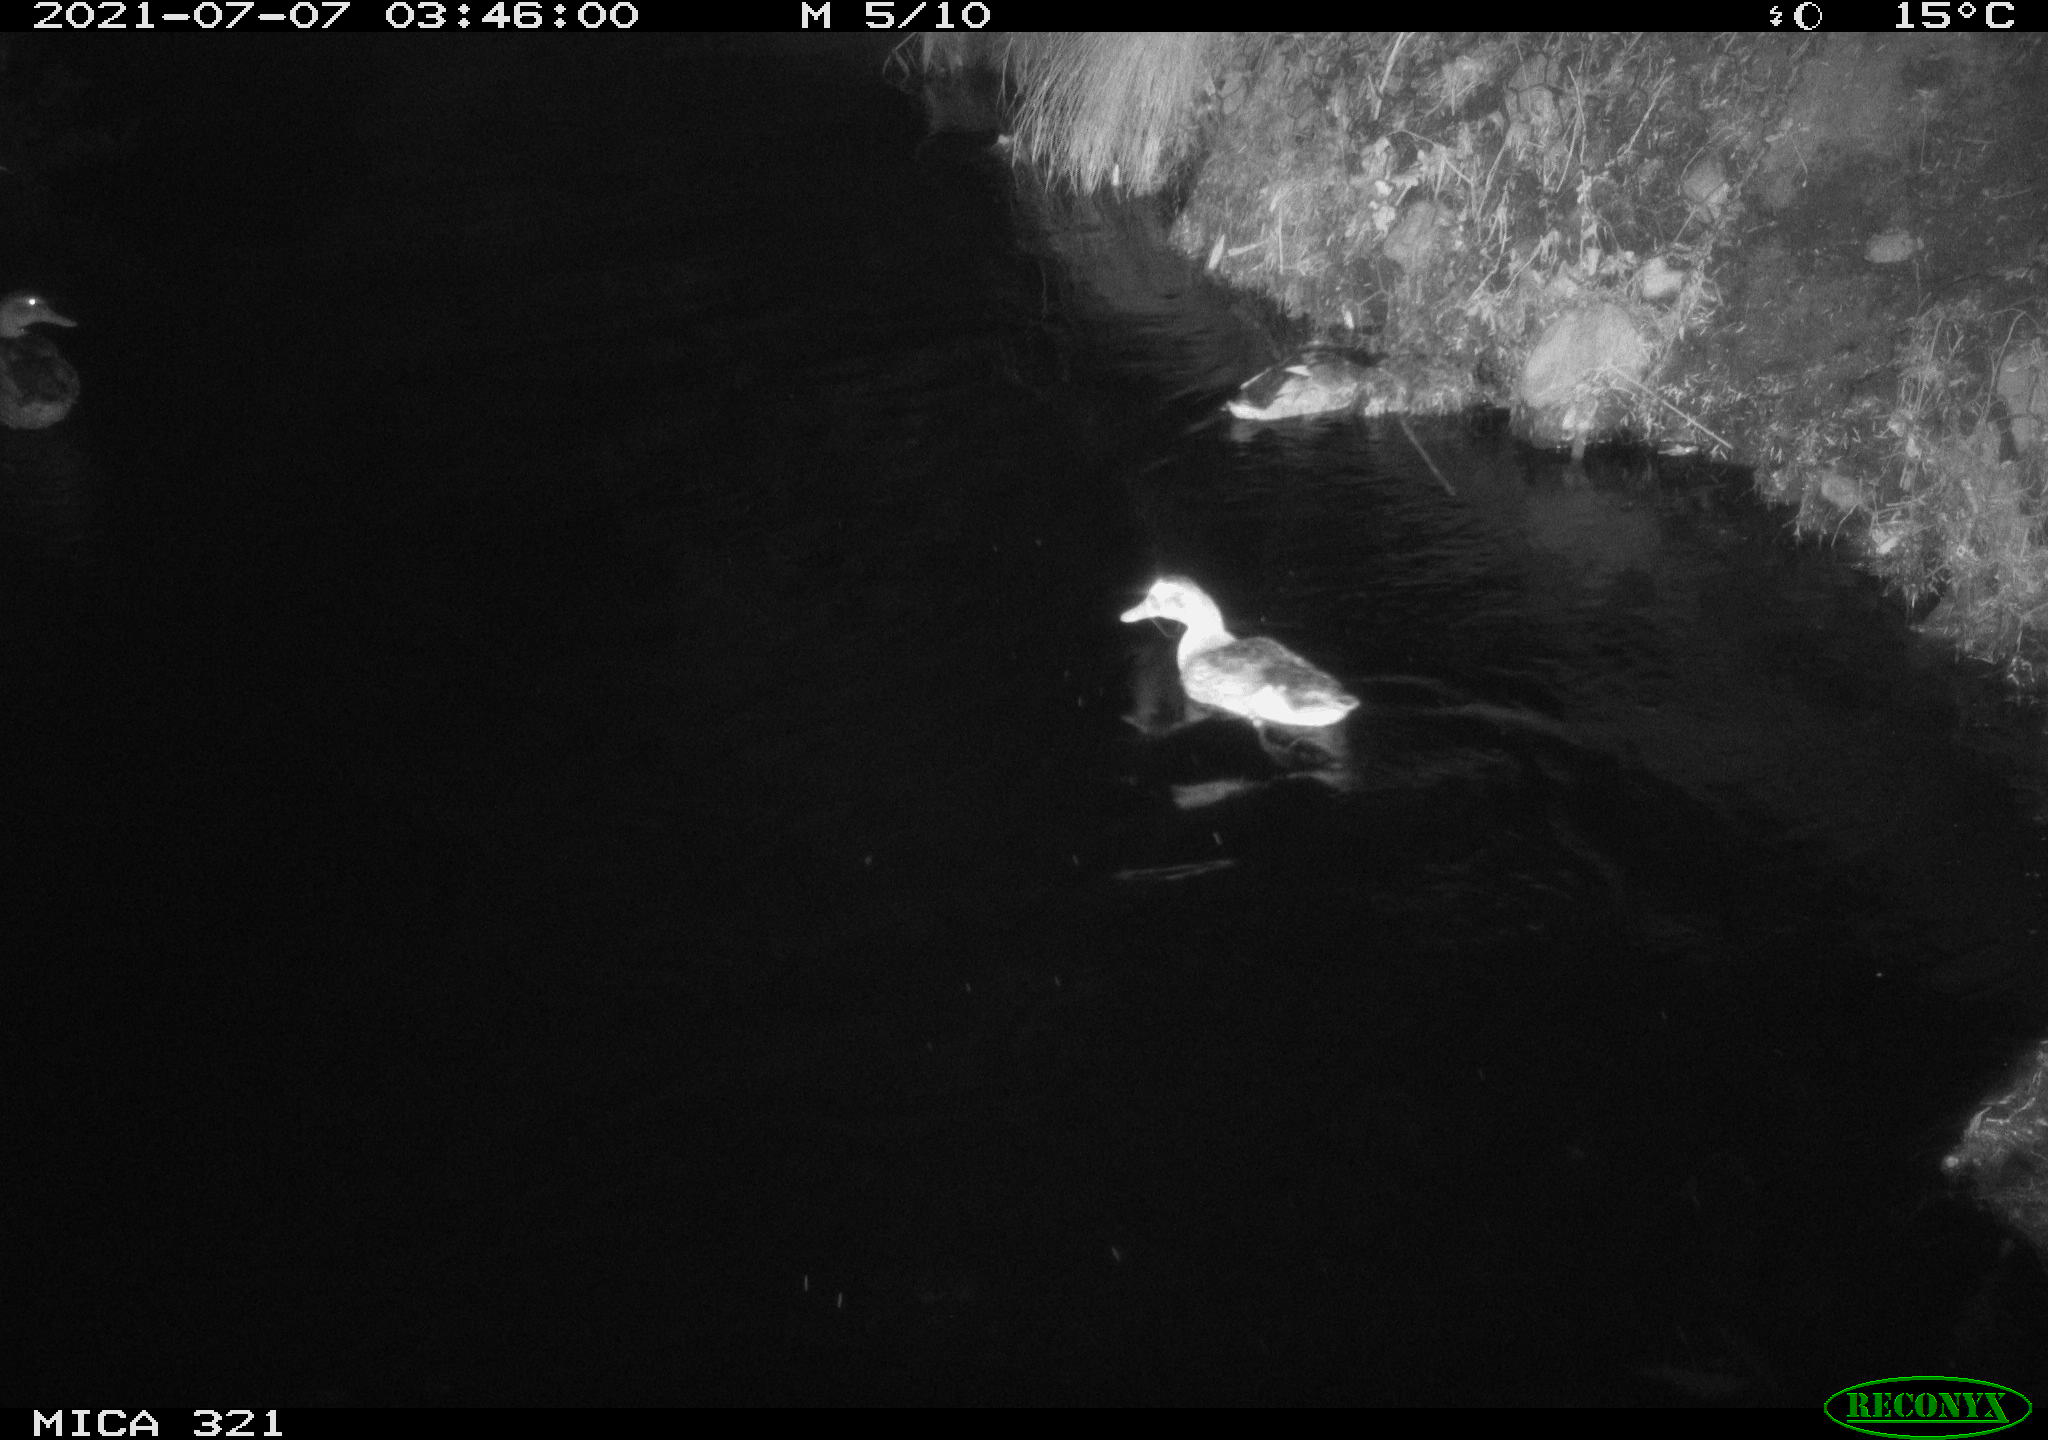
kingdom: Animalia
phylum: Chordata
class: Aves
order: Anseriformes
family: Anatidae
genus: Anas
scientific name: Anas platyrhynchos
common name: Mallard
